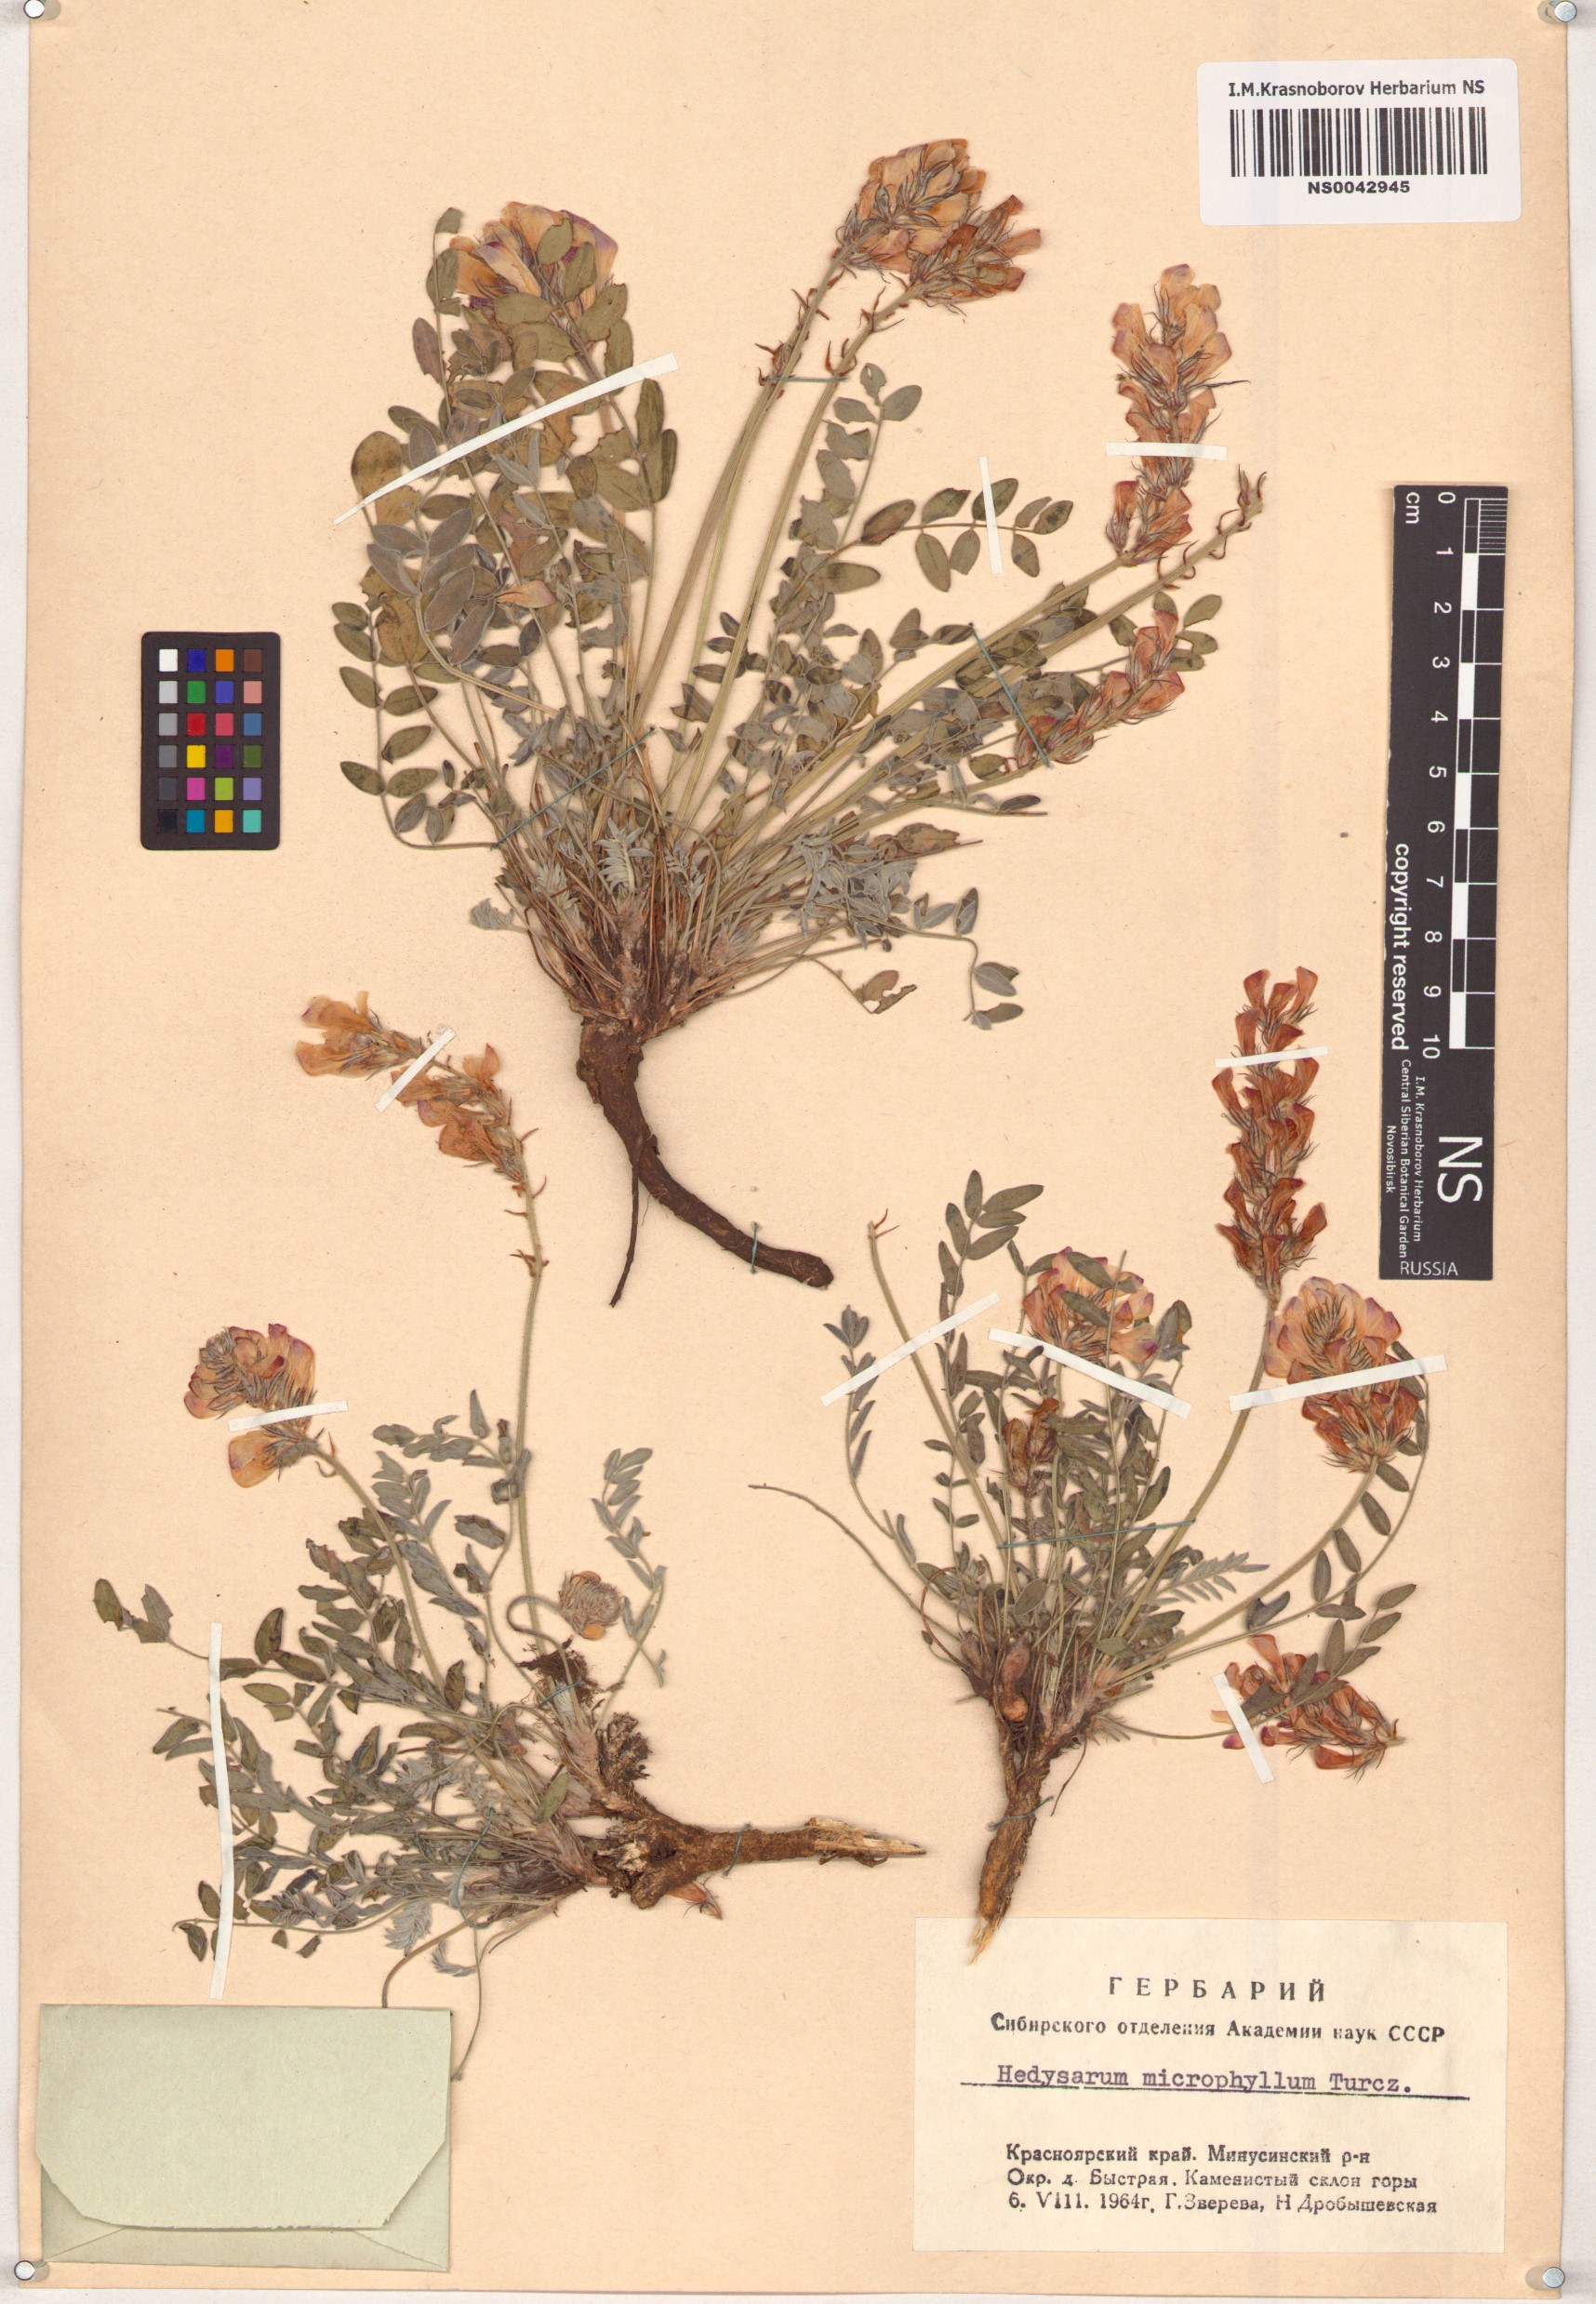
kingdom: Plantae
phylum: Tracheophyta
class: Magnoliopsida
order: Fabales
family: Fabaceae
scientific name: Fabaceae
